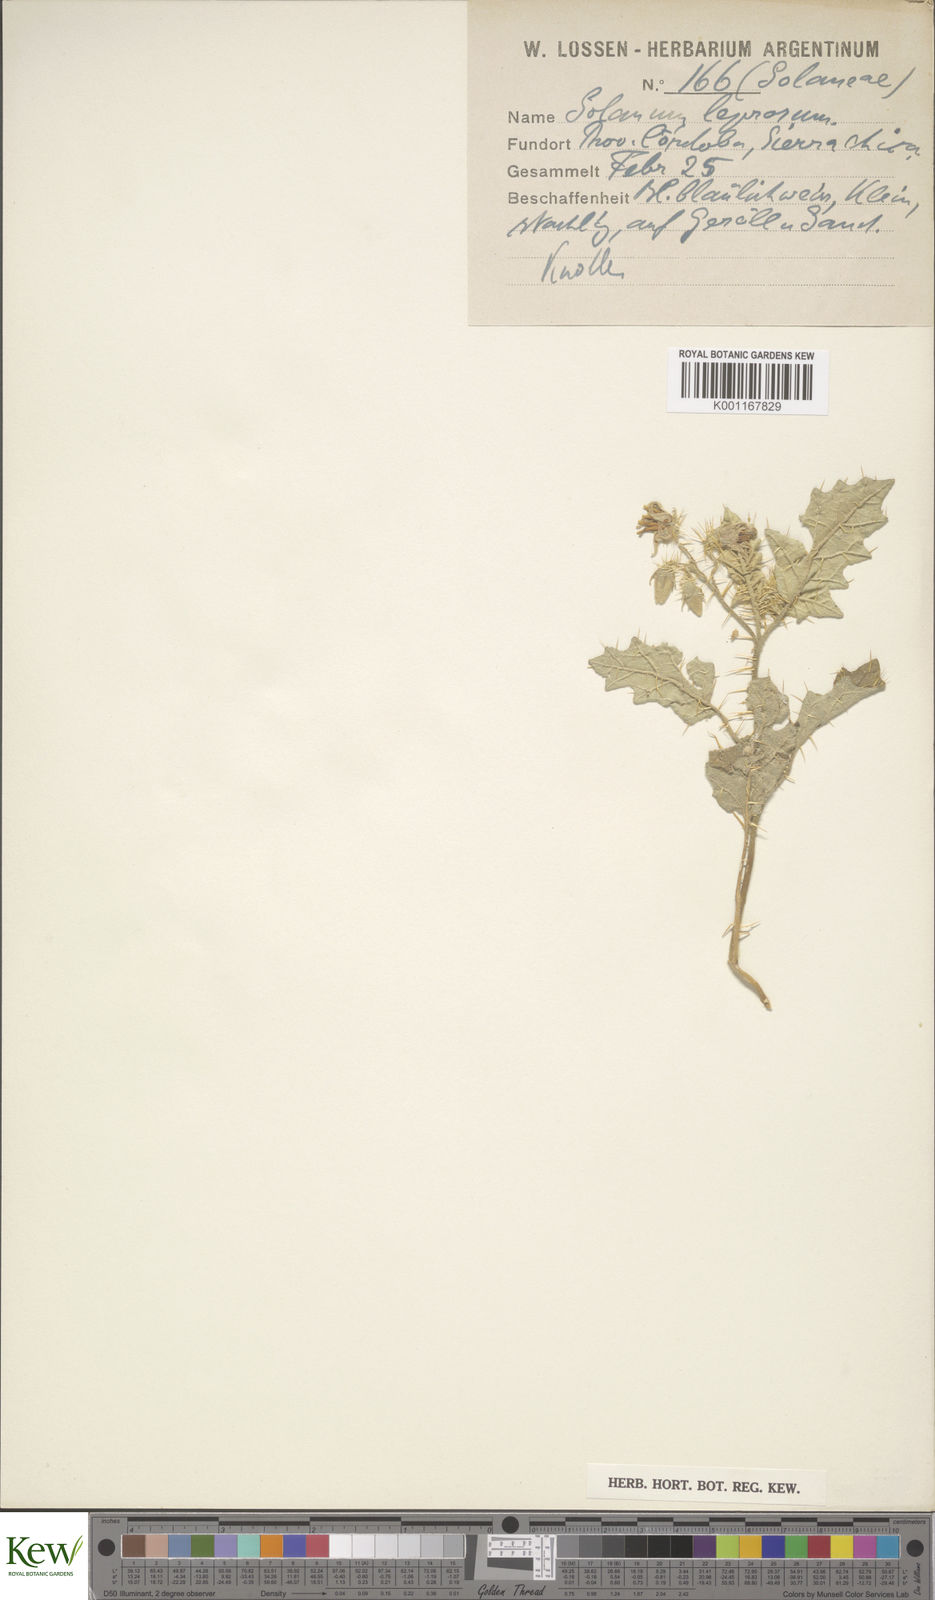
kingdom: Plantae
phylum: Tracheophyta
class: Magnoliopsida
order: Solanales
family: Solanaceae
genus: Solanum
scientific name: Solanum elaeagnifolium
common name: Silverleaf nightshade
